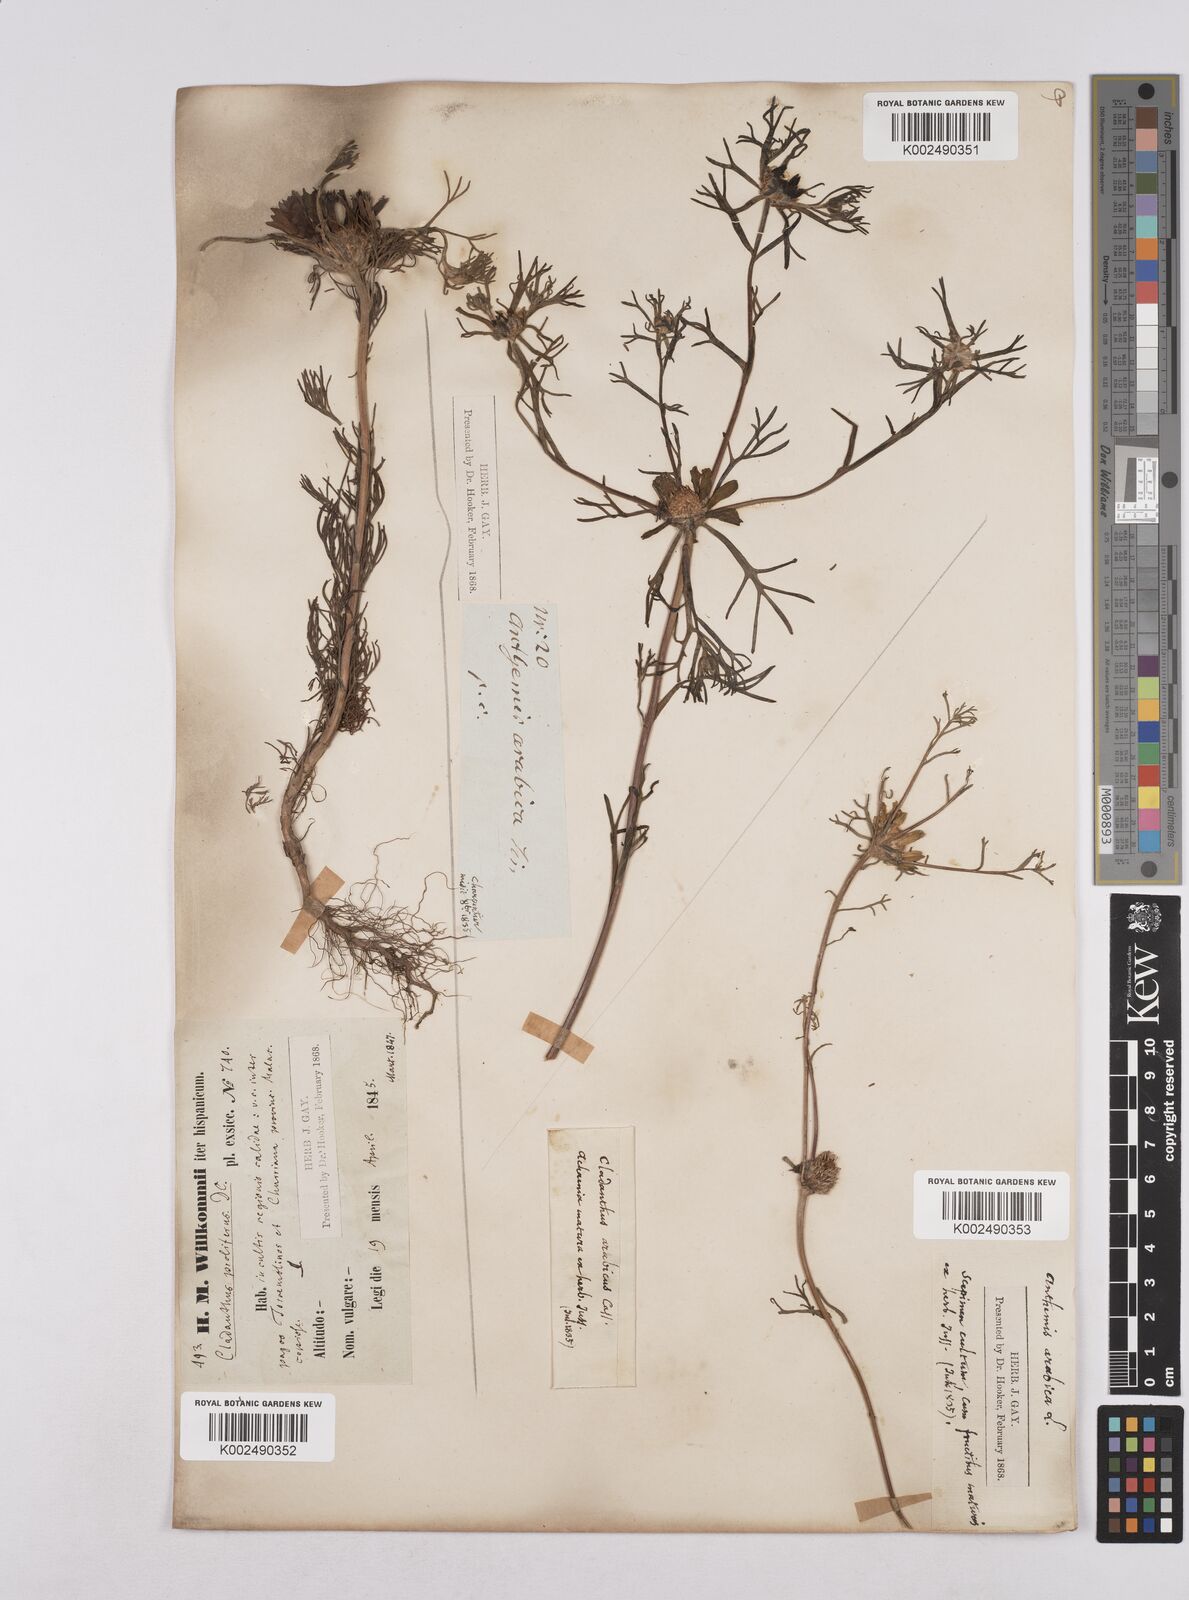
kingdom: Plantae
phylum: Tracheophyta
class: Magnoliopsida
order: Asterales
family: Asteraceae
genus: Cladanthus
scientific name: Cladanthus arabicus
